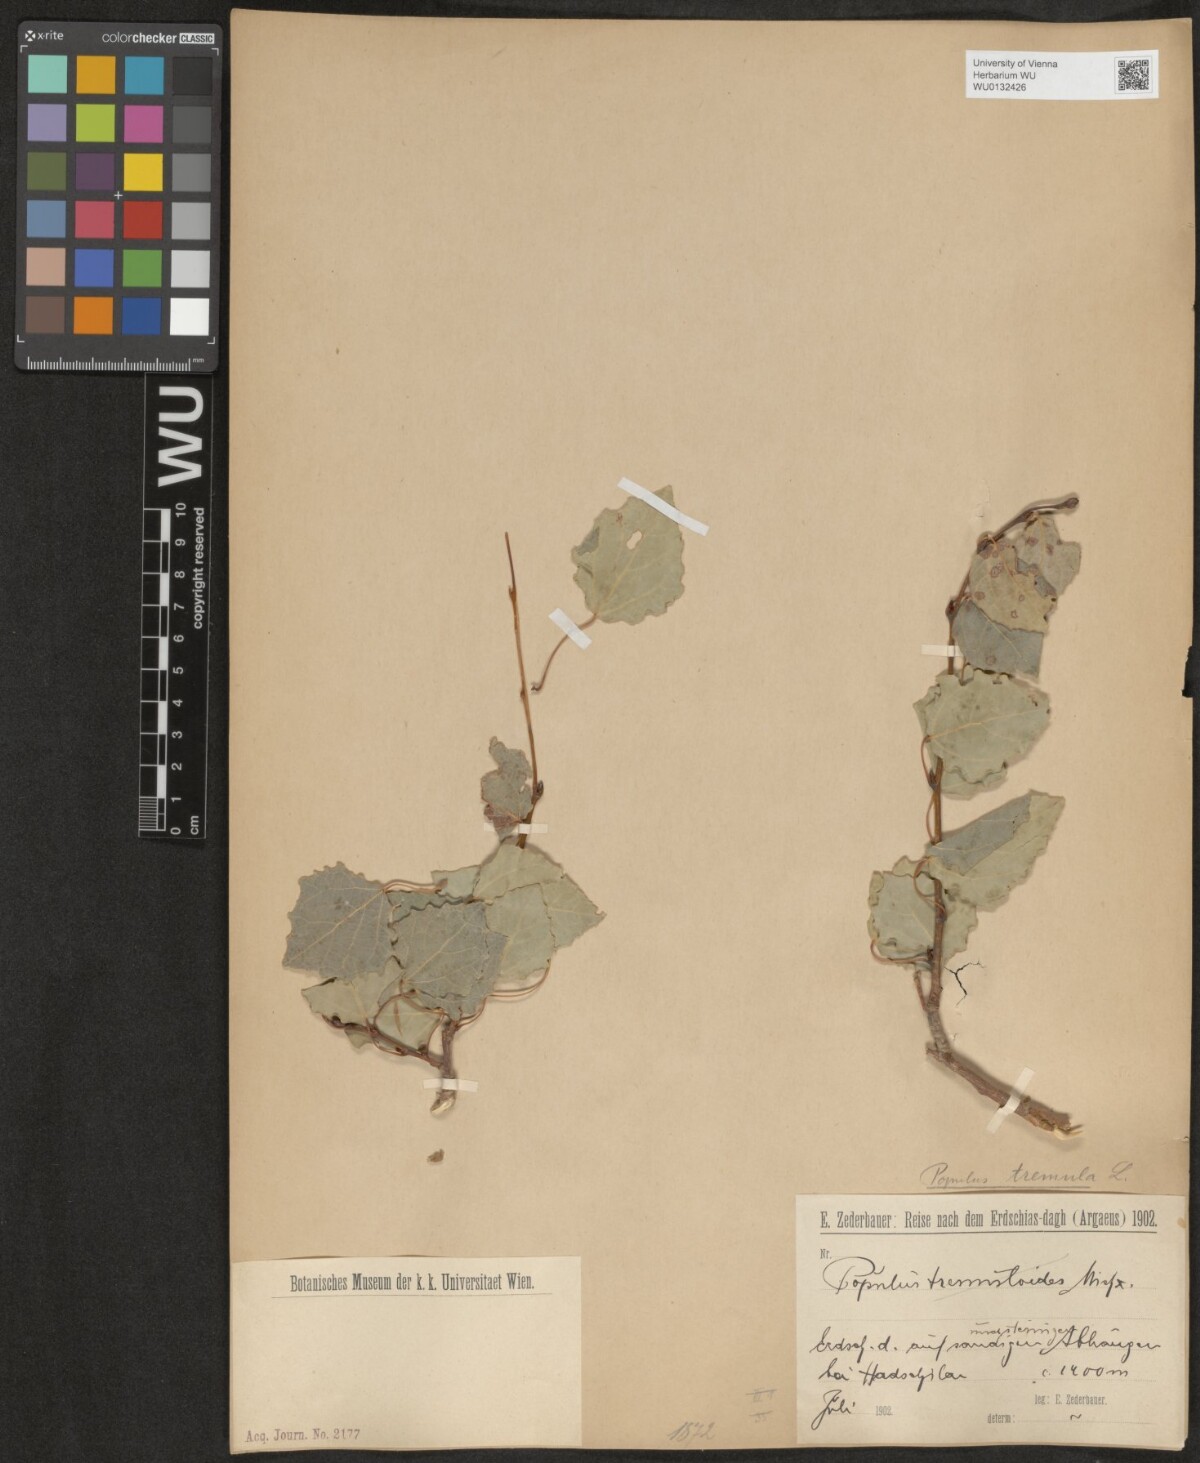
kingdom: Plantae
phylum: Tracheophyta
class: Magnoliopsida
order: Malpighiales
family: Salicaceae
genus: Populus
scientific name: Populus tremula
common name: European aspen
